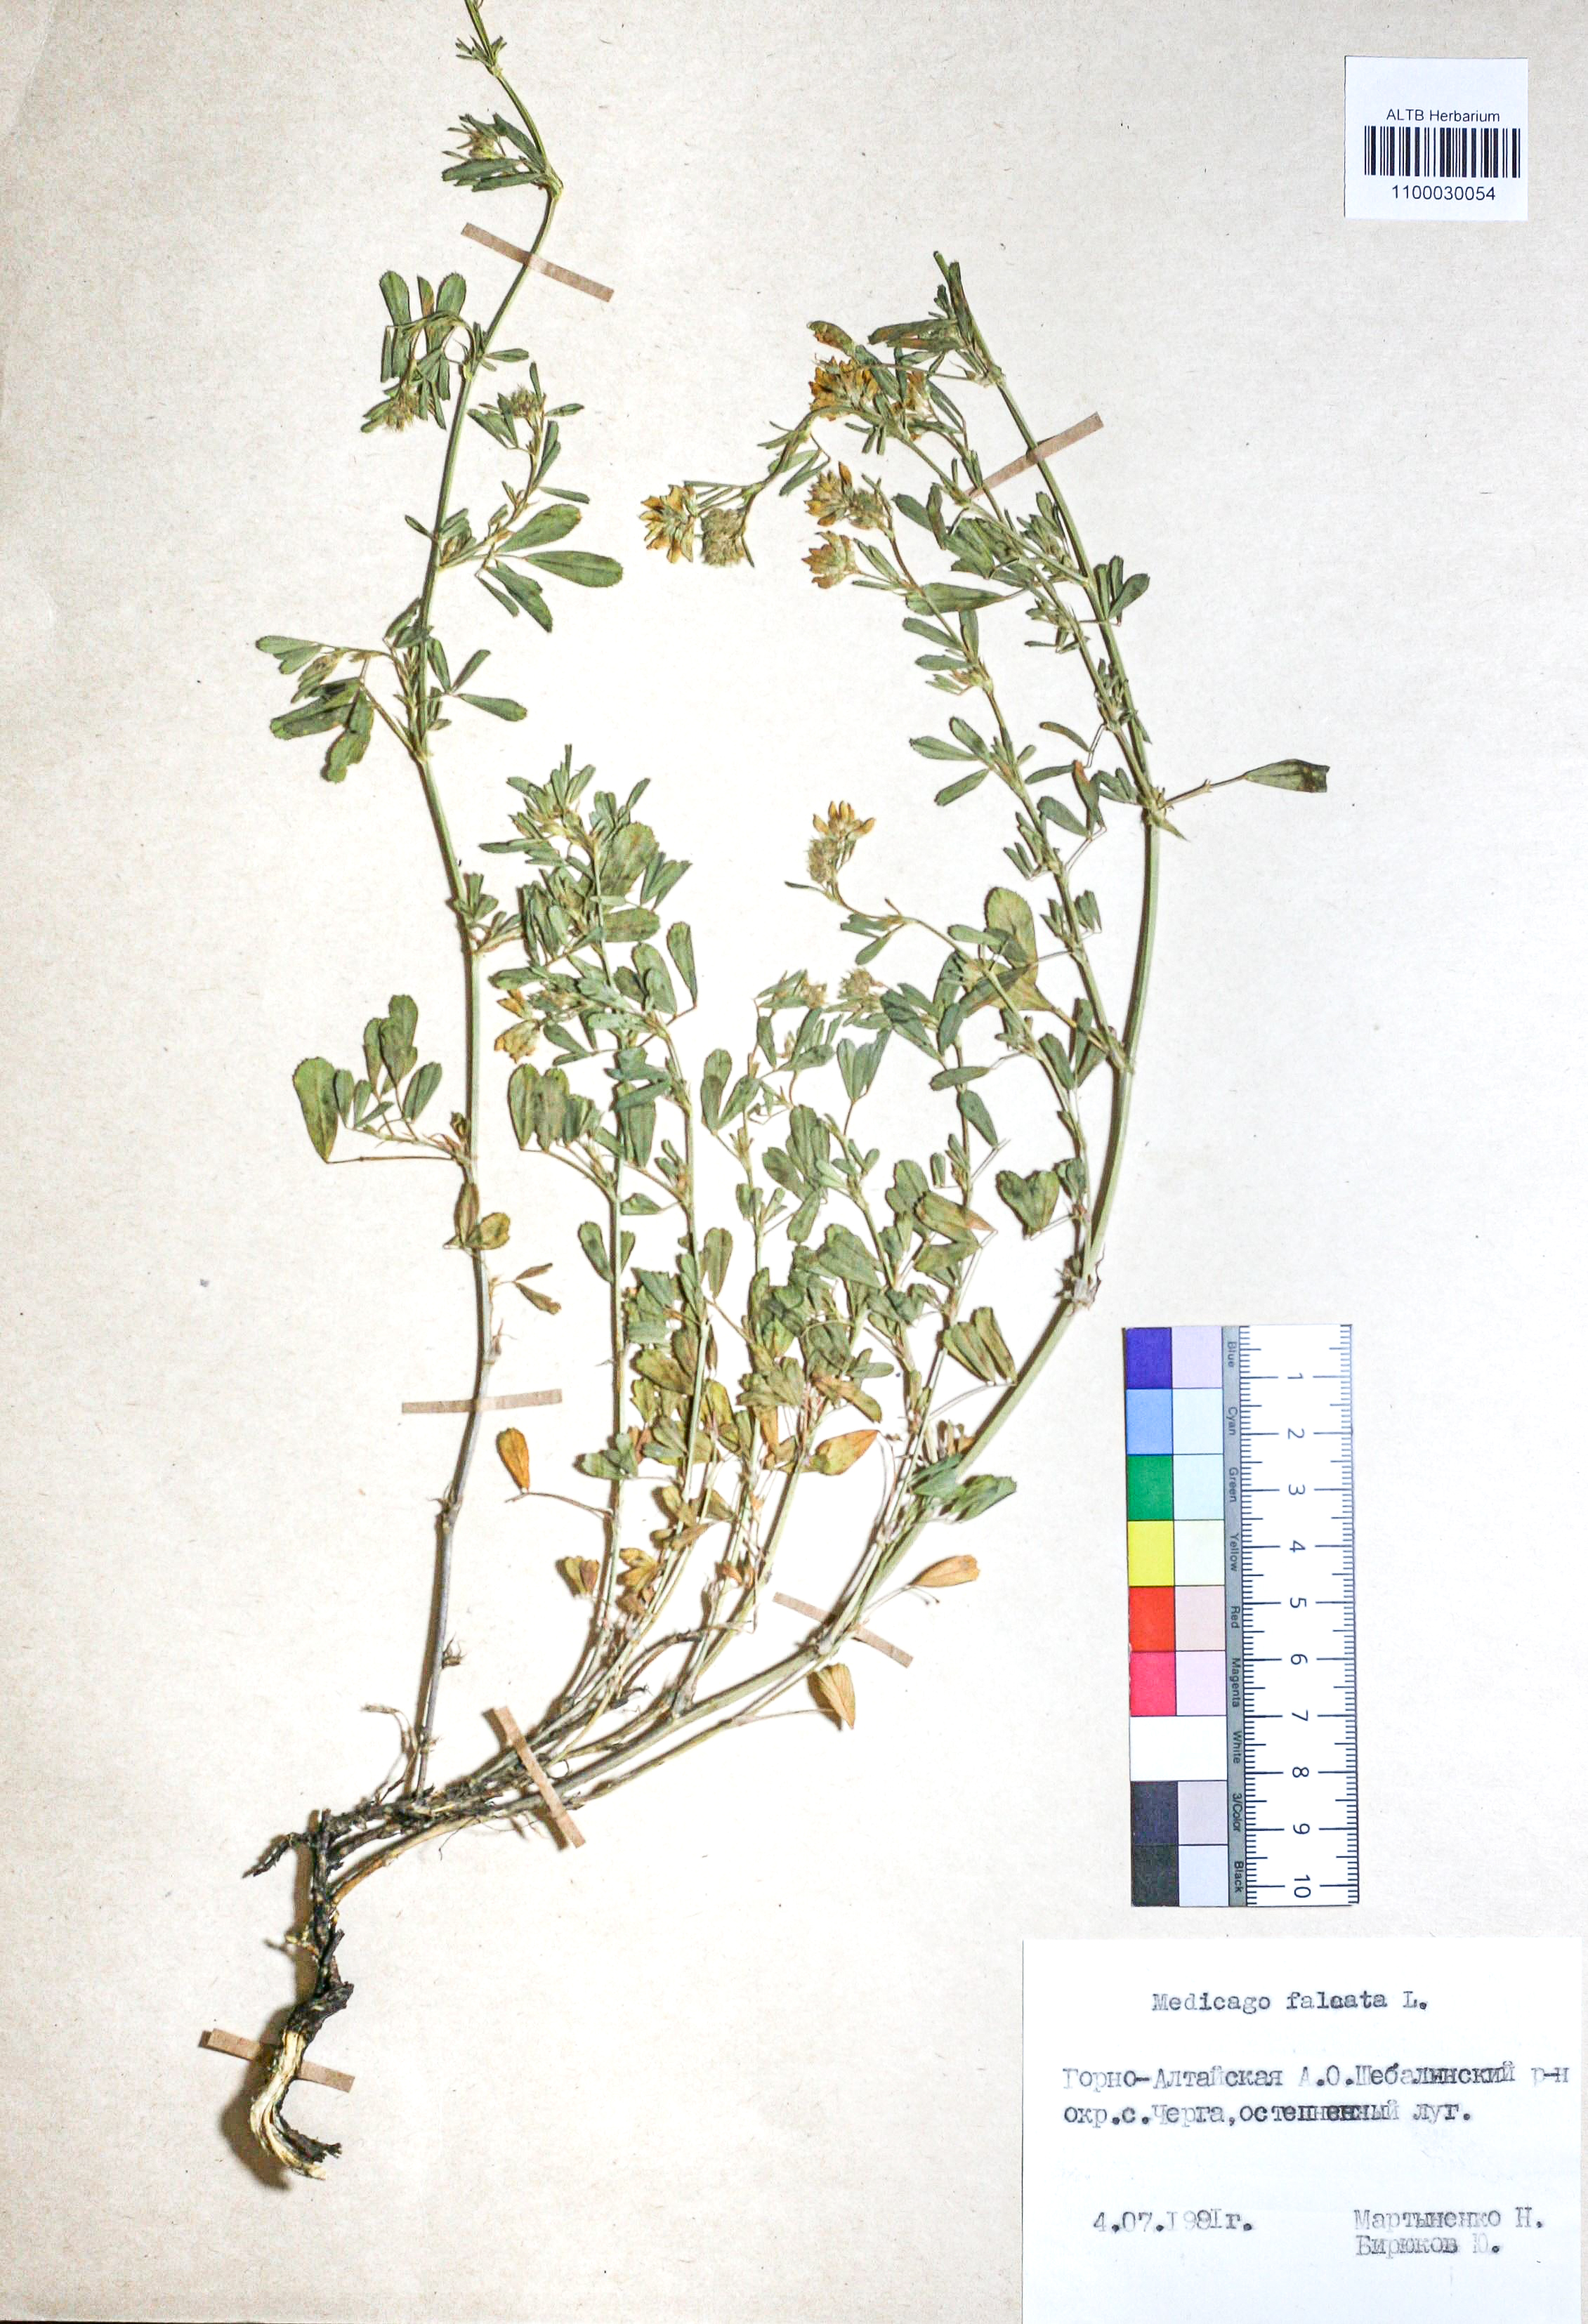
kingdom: Plantae
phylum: Tracheophyta
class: Magnoliopsida
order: Fabales
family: Fabaceae
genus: Medicago
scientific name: Medicago falcata
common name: Sickle medick
